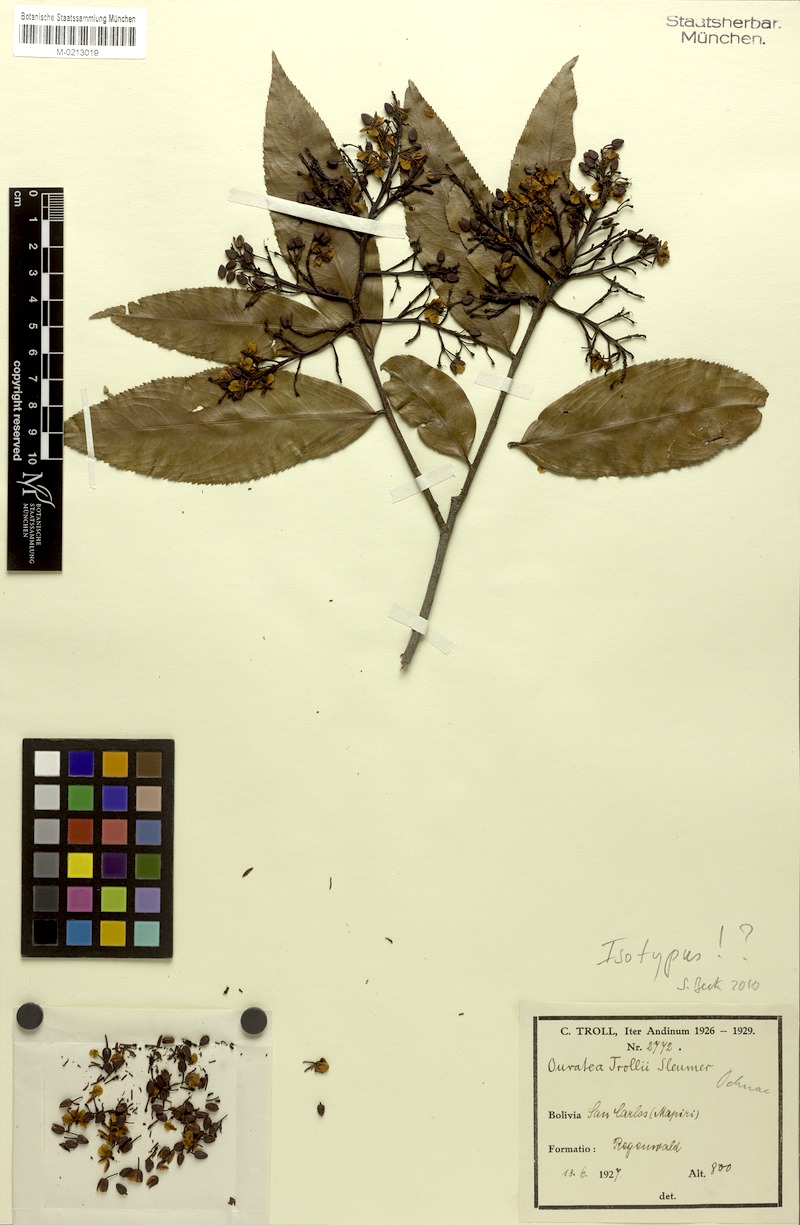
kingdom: Plantae
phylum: Tracheophyta
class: Magnoliopsida
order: Malpighiales
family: Ochnaceae
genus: Ouratea
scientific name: Ouratea trollii
